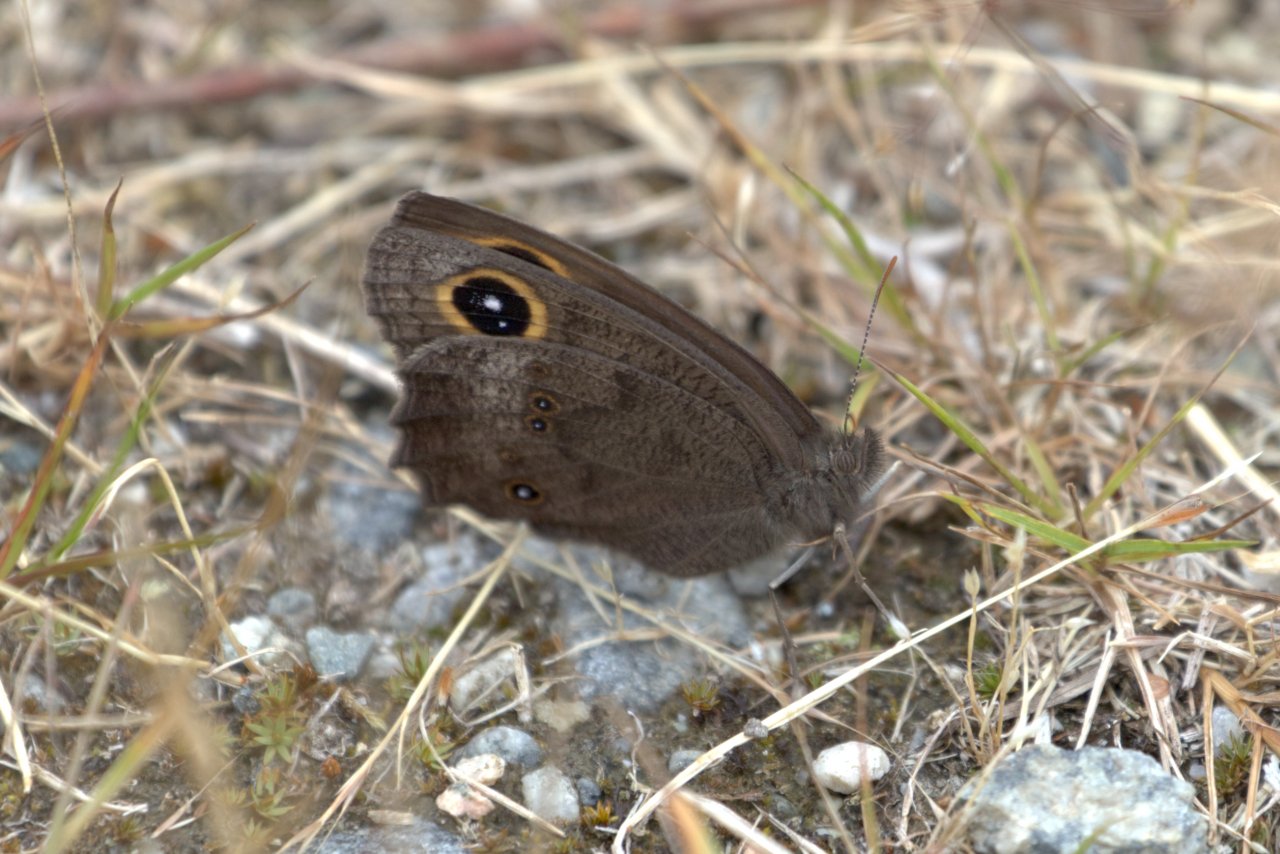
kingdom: Animalia
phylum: Arthropoda
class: Insecta
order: Lepidoptera
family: Nymphalidae
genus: Cercyonis
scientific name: Cercyonis pegala
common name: Common Wood-Nymph
